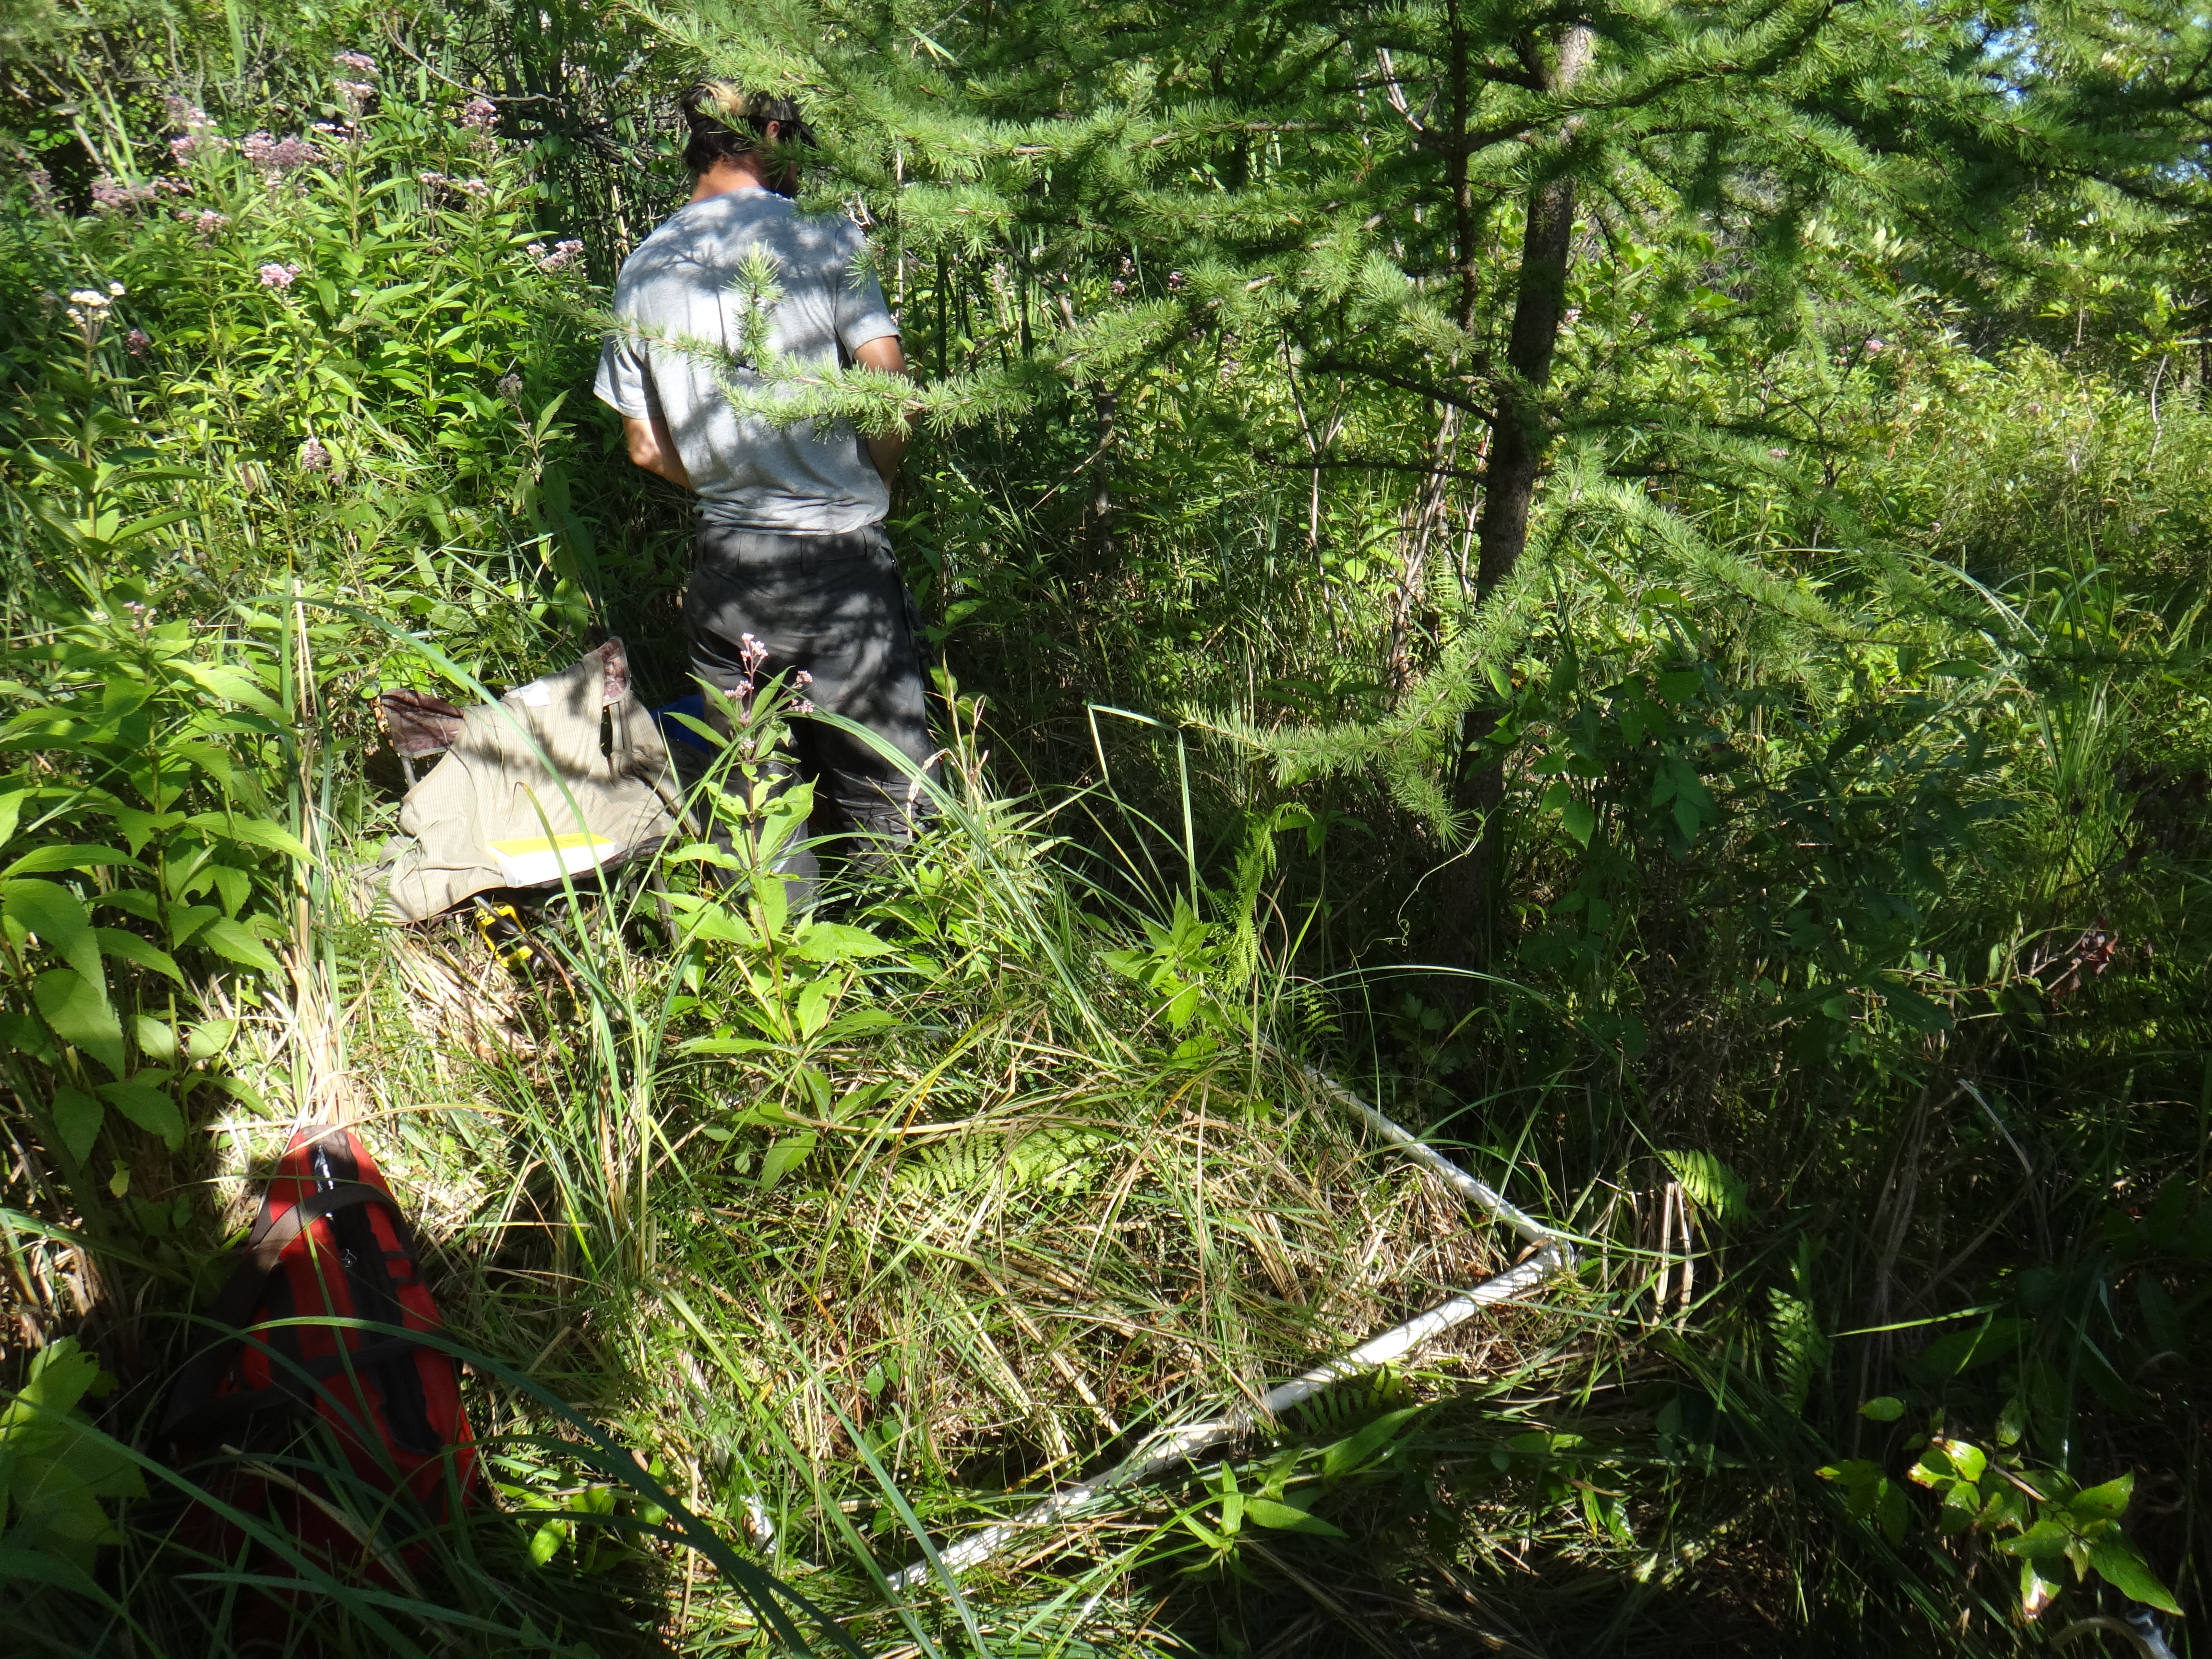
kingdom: Plantae
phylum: Tracheophyta
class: Liliopsida
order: Poales
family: Cyperaceae
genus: Carex
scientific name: Carex lacustris
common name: Common lake sedge
